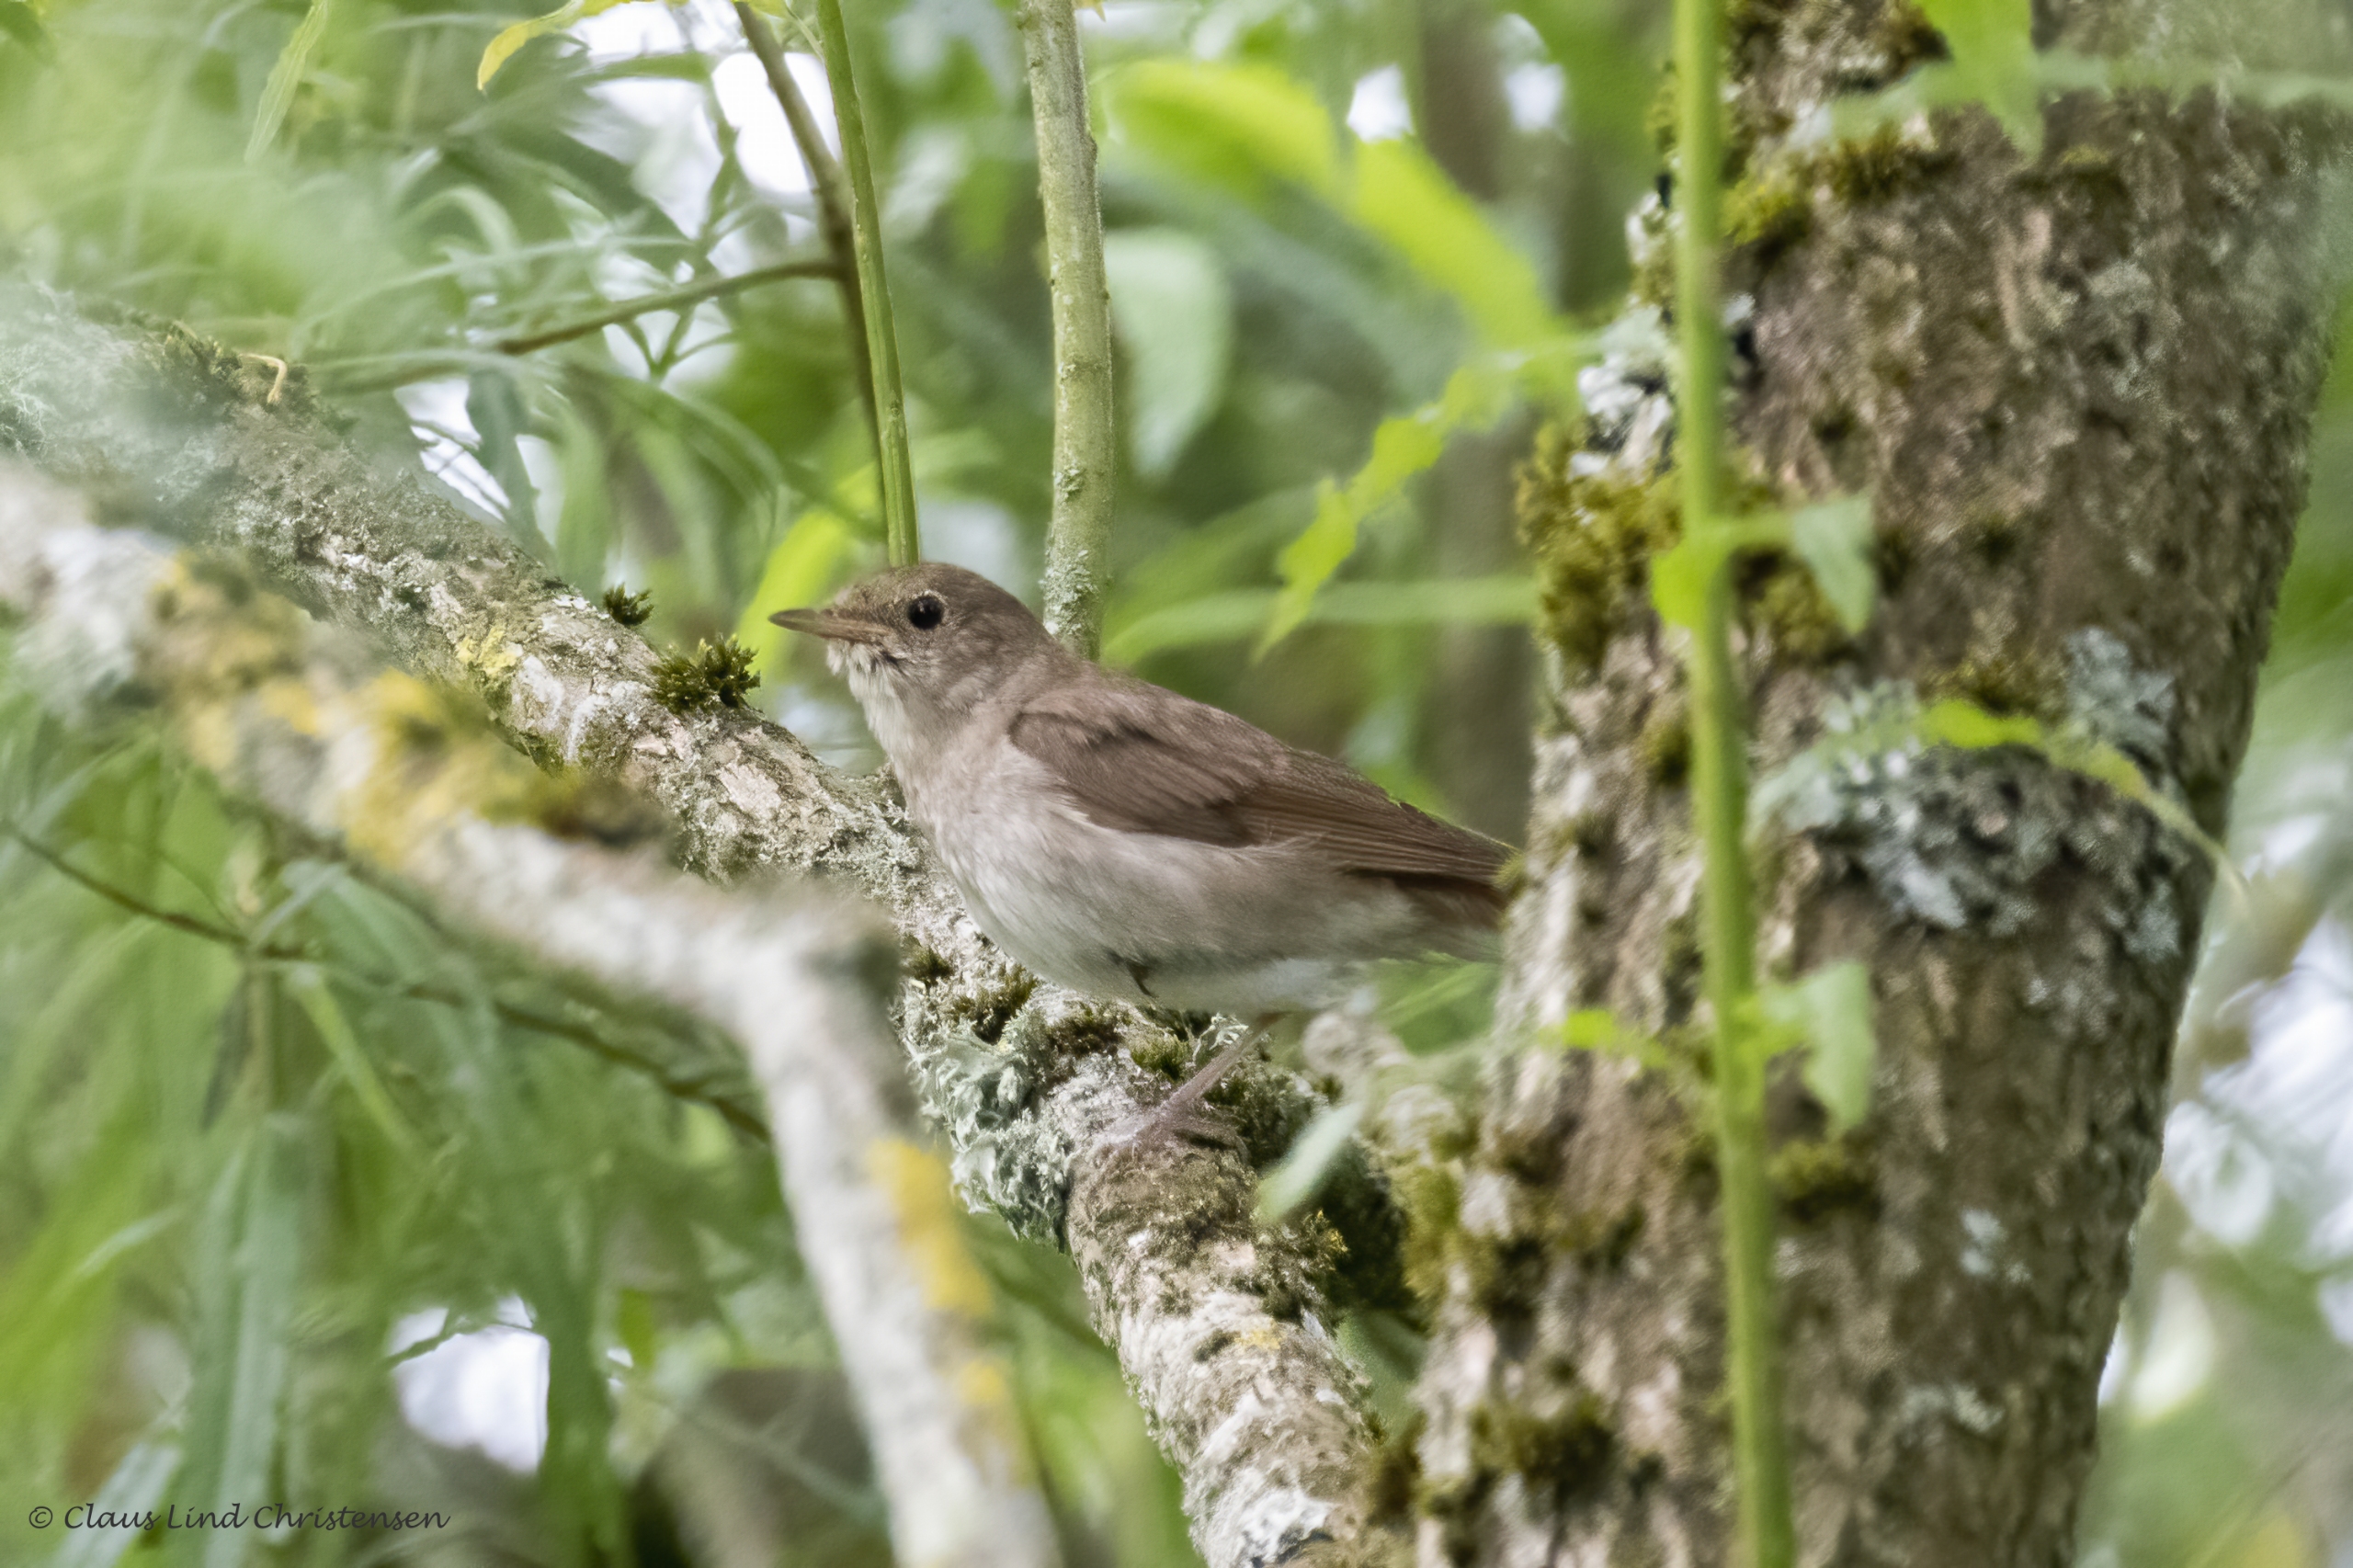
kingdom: Animalia
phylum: Chordata
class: Aves
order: Passeriformes
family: Muscicapidae
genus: Luscinia
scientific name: Luscinia luscinia
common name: Nattergal
